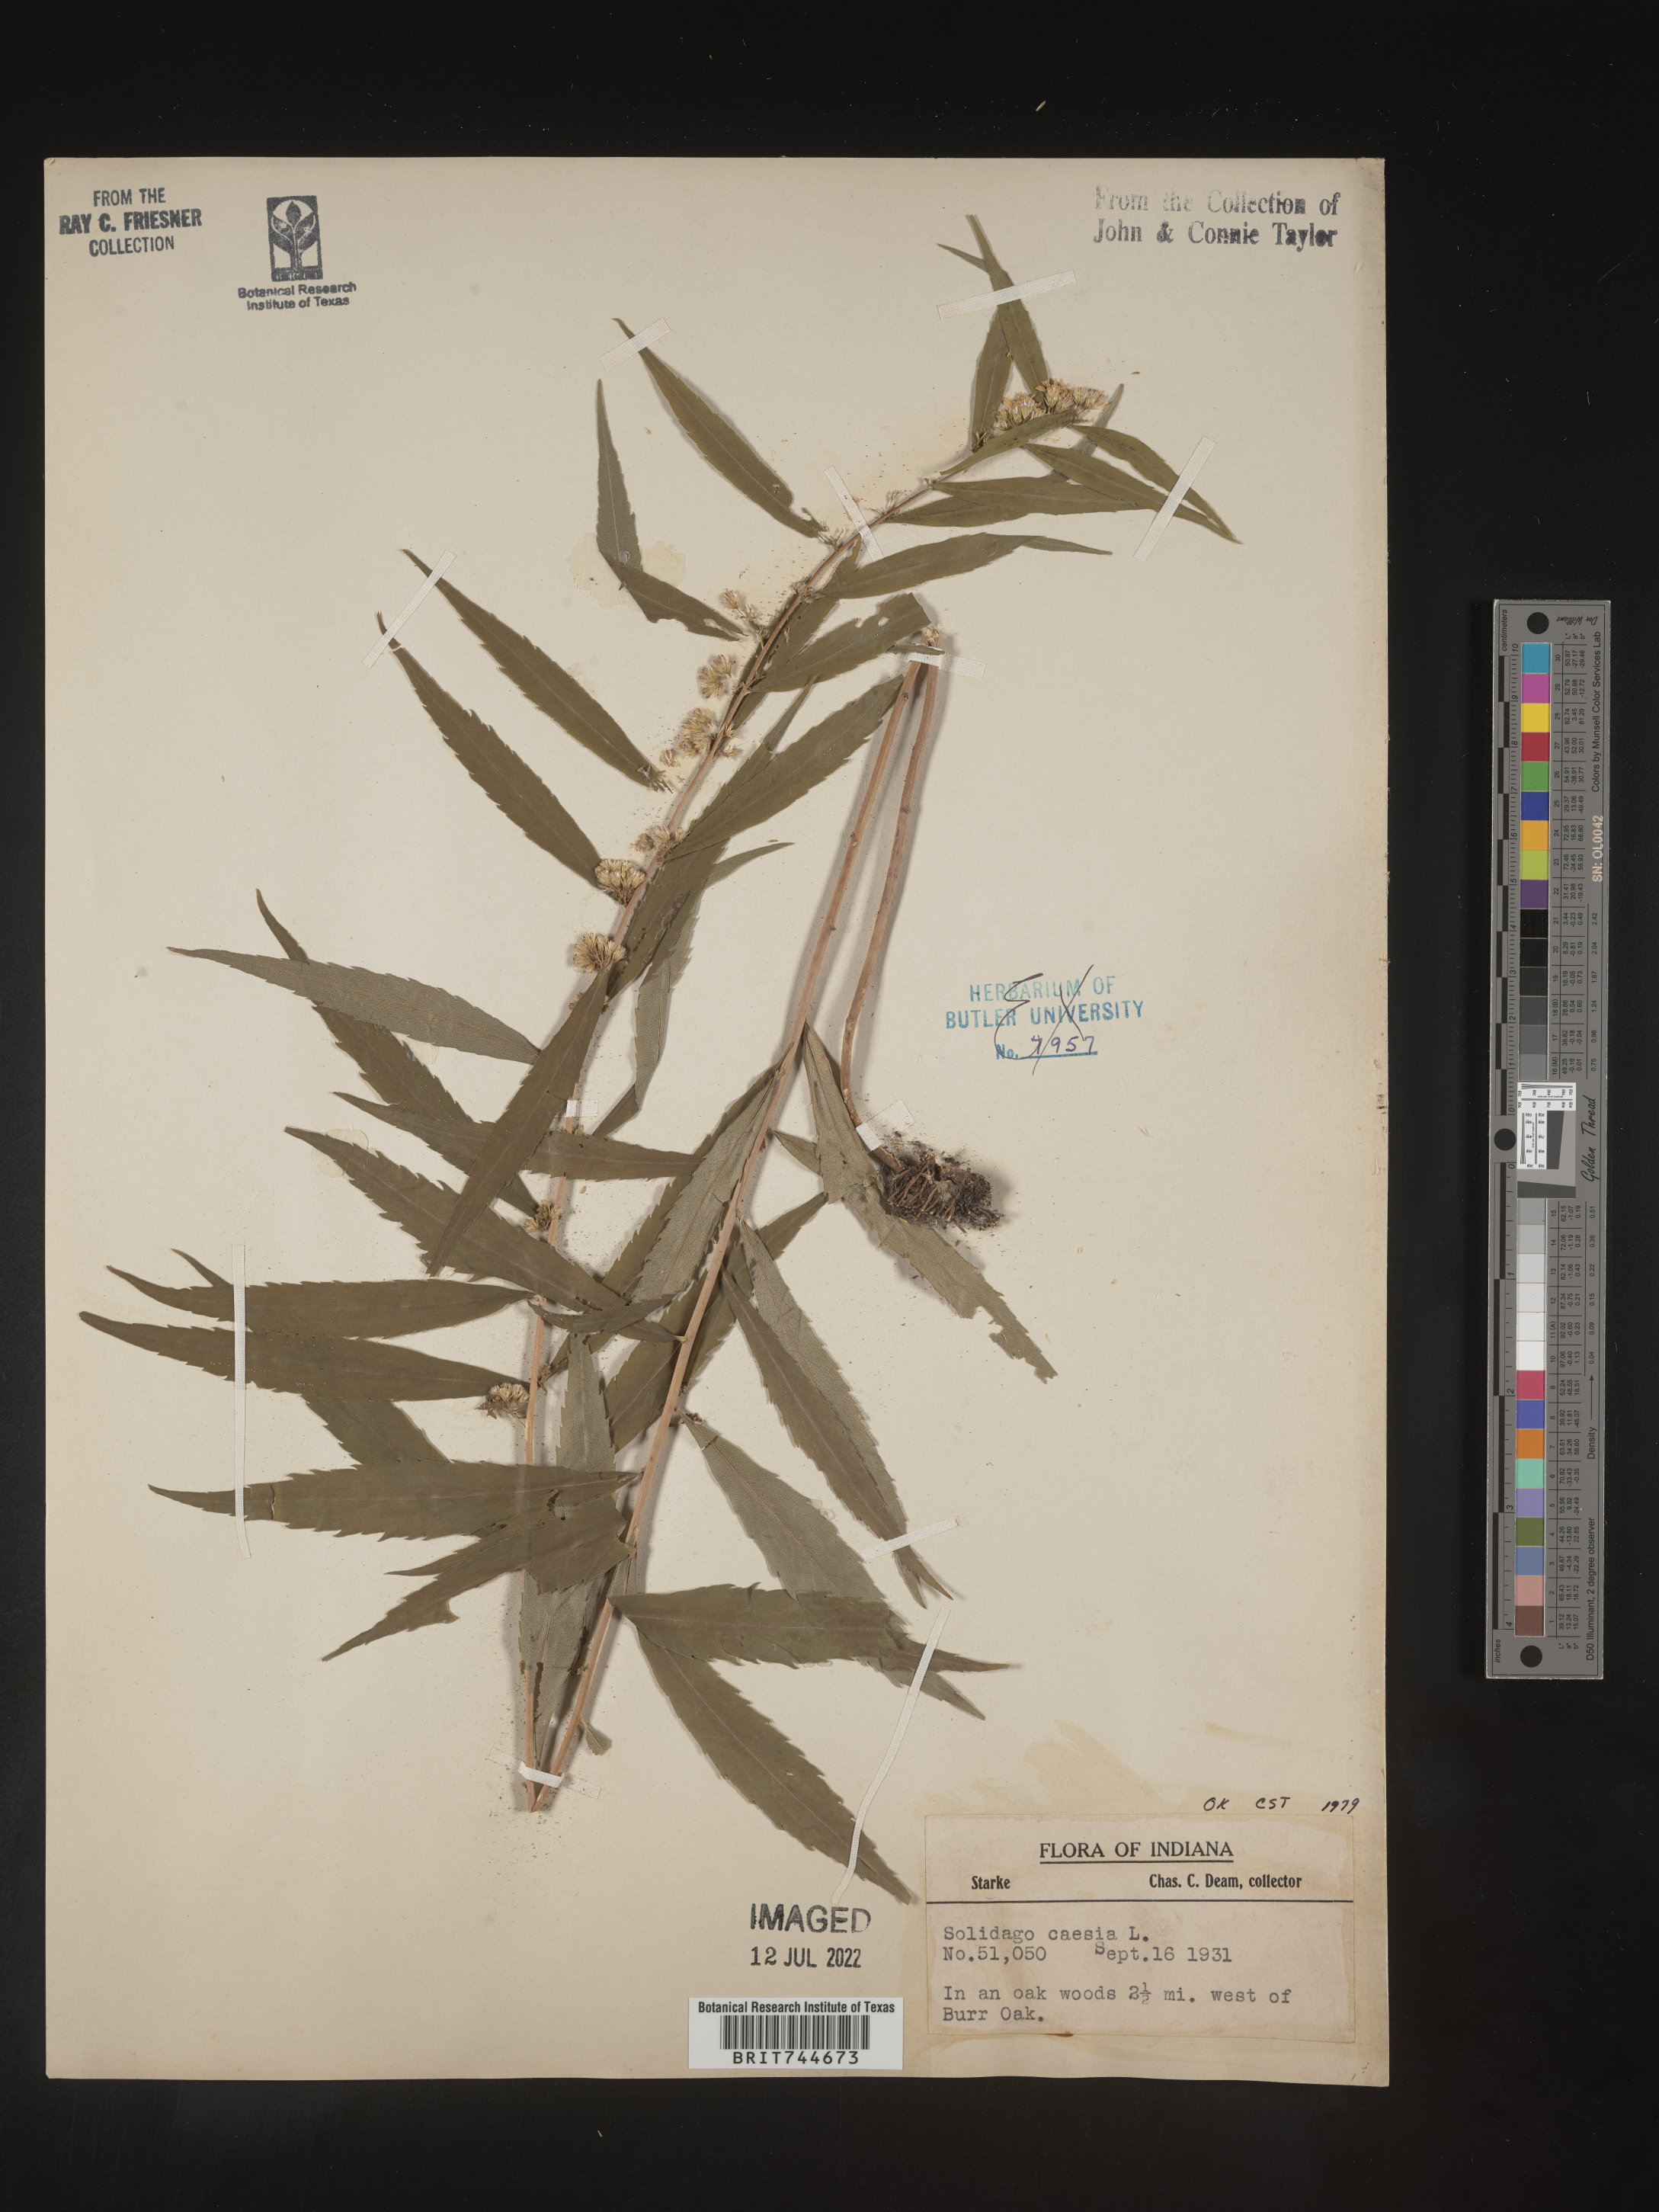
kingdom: Plantae
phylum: Tracheophyta
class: Magnoliopsida
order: Asterales
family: Asteraceae
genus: Solidago
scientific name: Solidago caesia
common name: Woodland goldenrod
